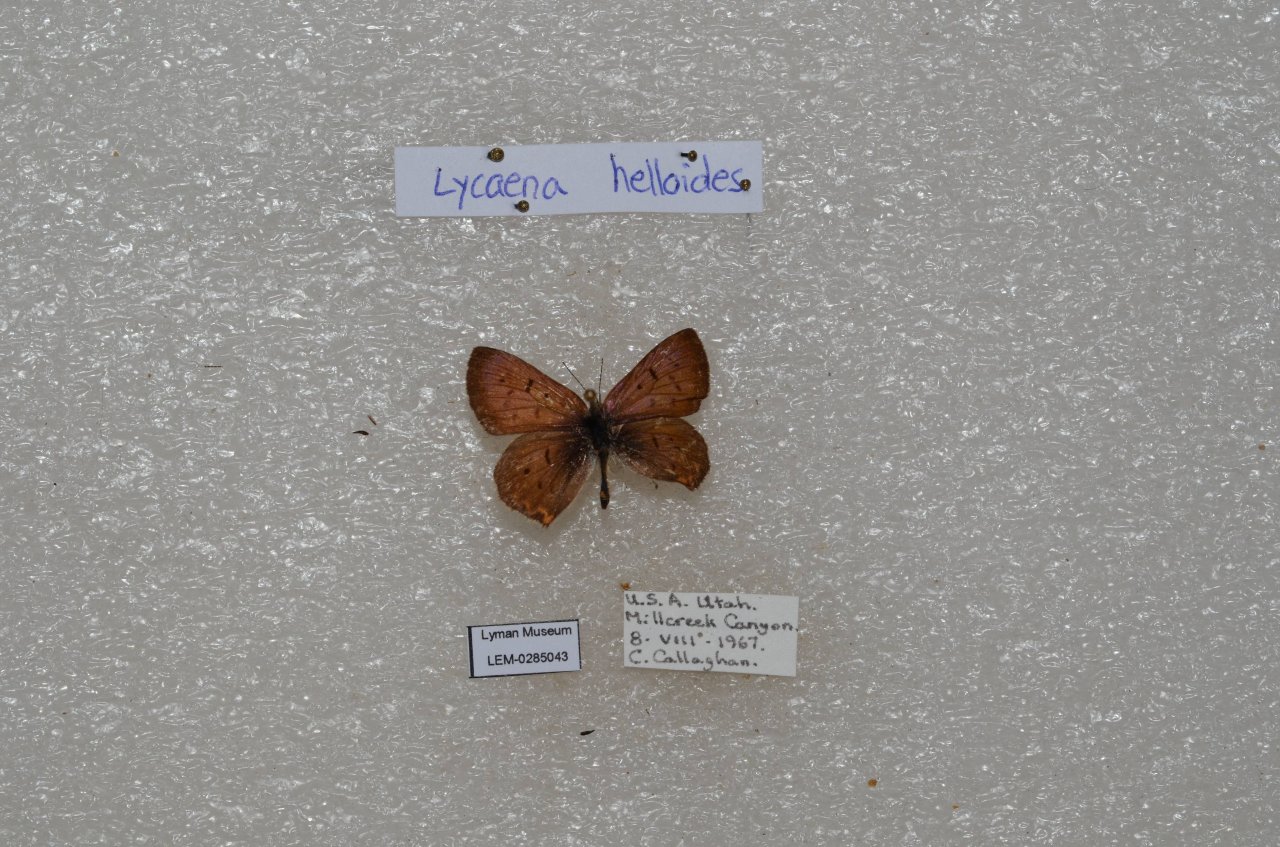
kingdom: Animalia
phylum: Arthropoda
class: Insecta
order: Lepidoptera
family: Sesiidae
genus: Sesia
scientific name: Sesia Lycaena helloides
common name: Purplish Copper
